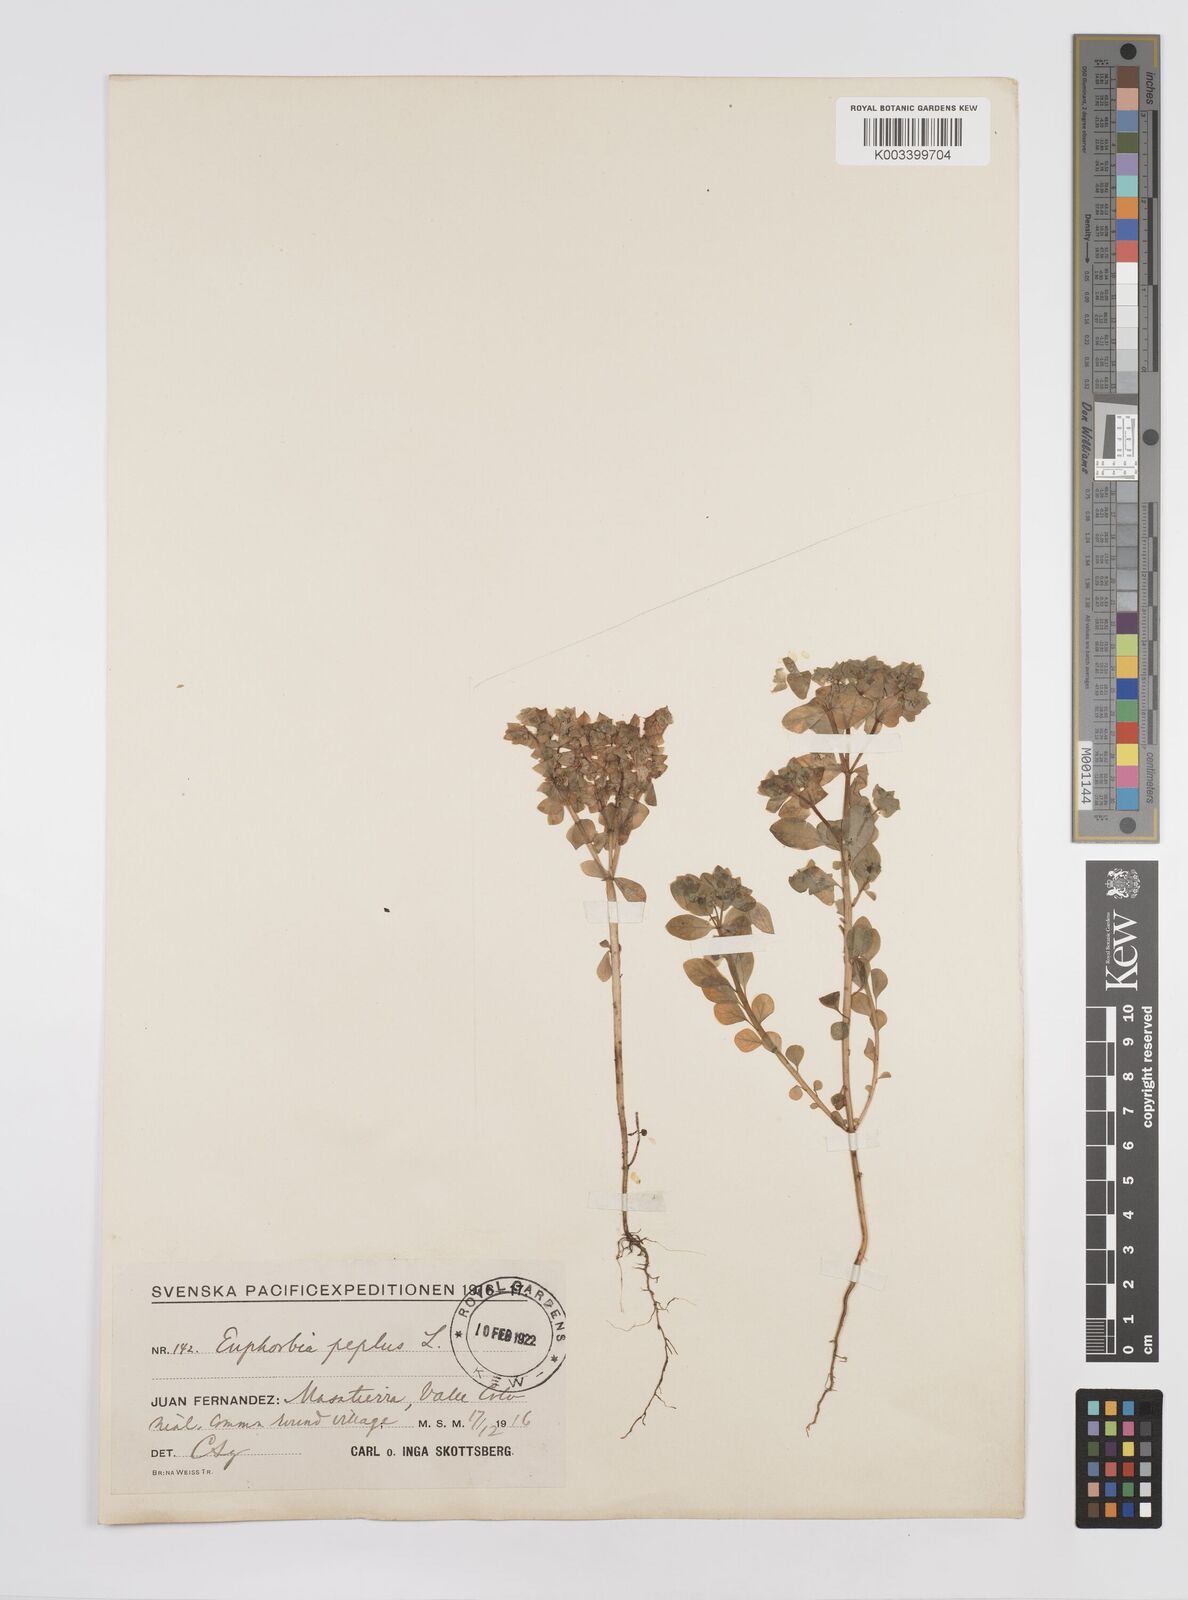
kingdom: Plantae
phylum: Tracheophyta
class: Magnoliopsida
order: Malpighiales
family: Euphorbiaceae
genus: Euphorbia
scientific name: Euphorbia peplus
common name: Petty spurge
